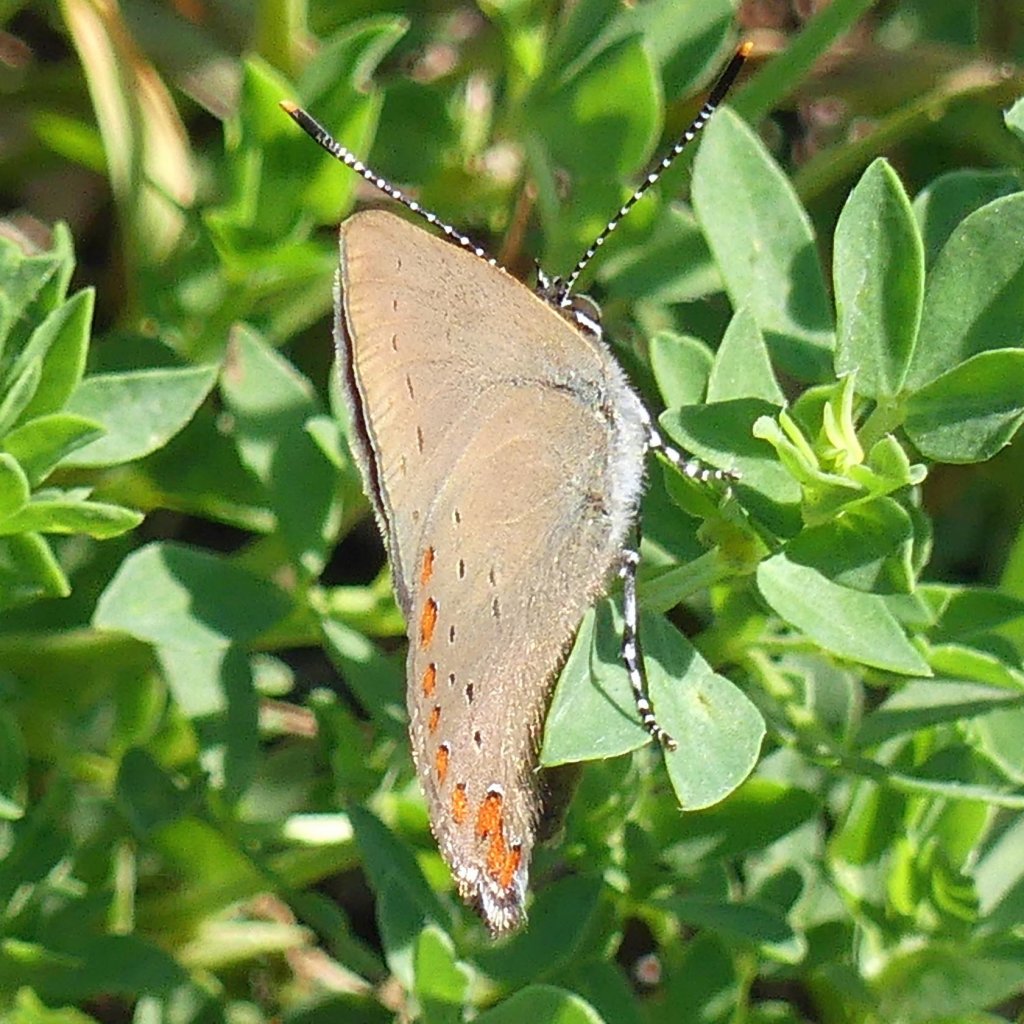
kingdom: Animalia
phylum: Arthropoda
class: Insecta
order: Lepidoptera
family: Lycaenidae
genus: Harkenclenus
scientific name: Harkenclenus titus
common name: Coral Hairstreak
